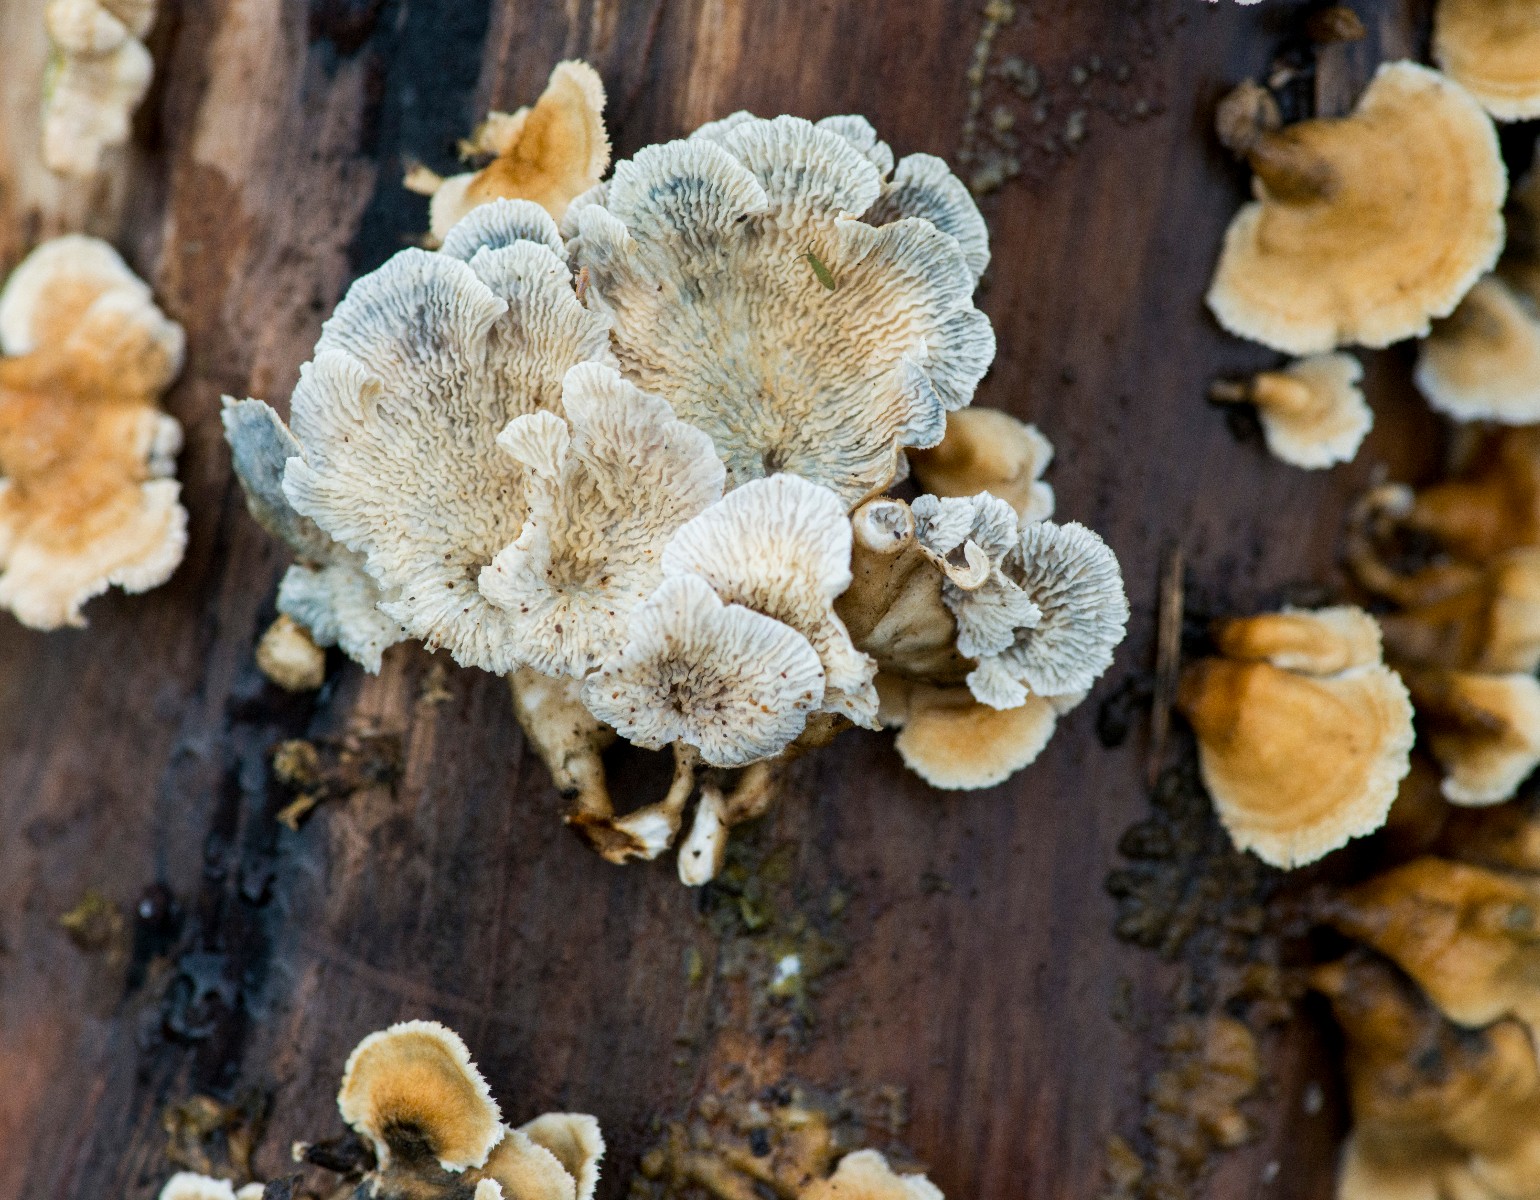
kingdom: Fungi
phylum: Basidiomycota
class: Agaricomycetes
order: Amylocorticiales
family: Amylocorticiaceae
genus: Plicaturopsis
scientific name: Plicaturopsis crispa
